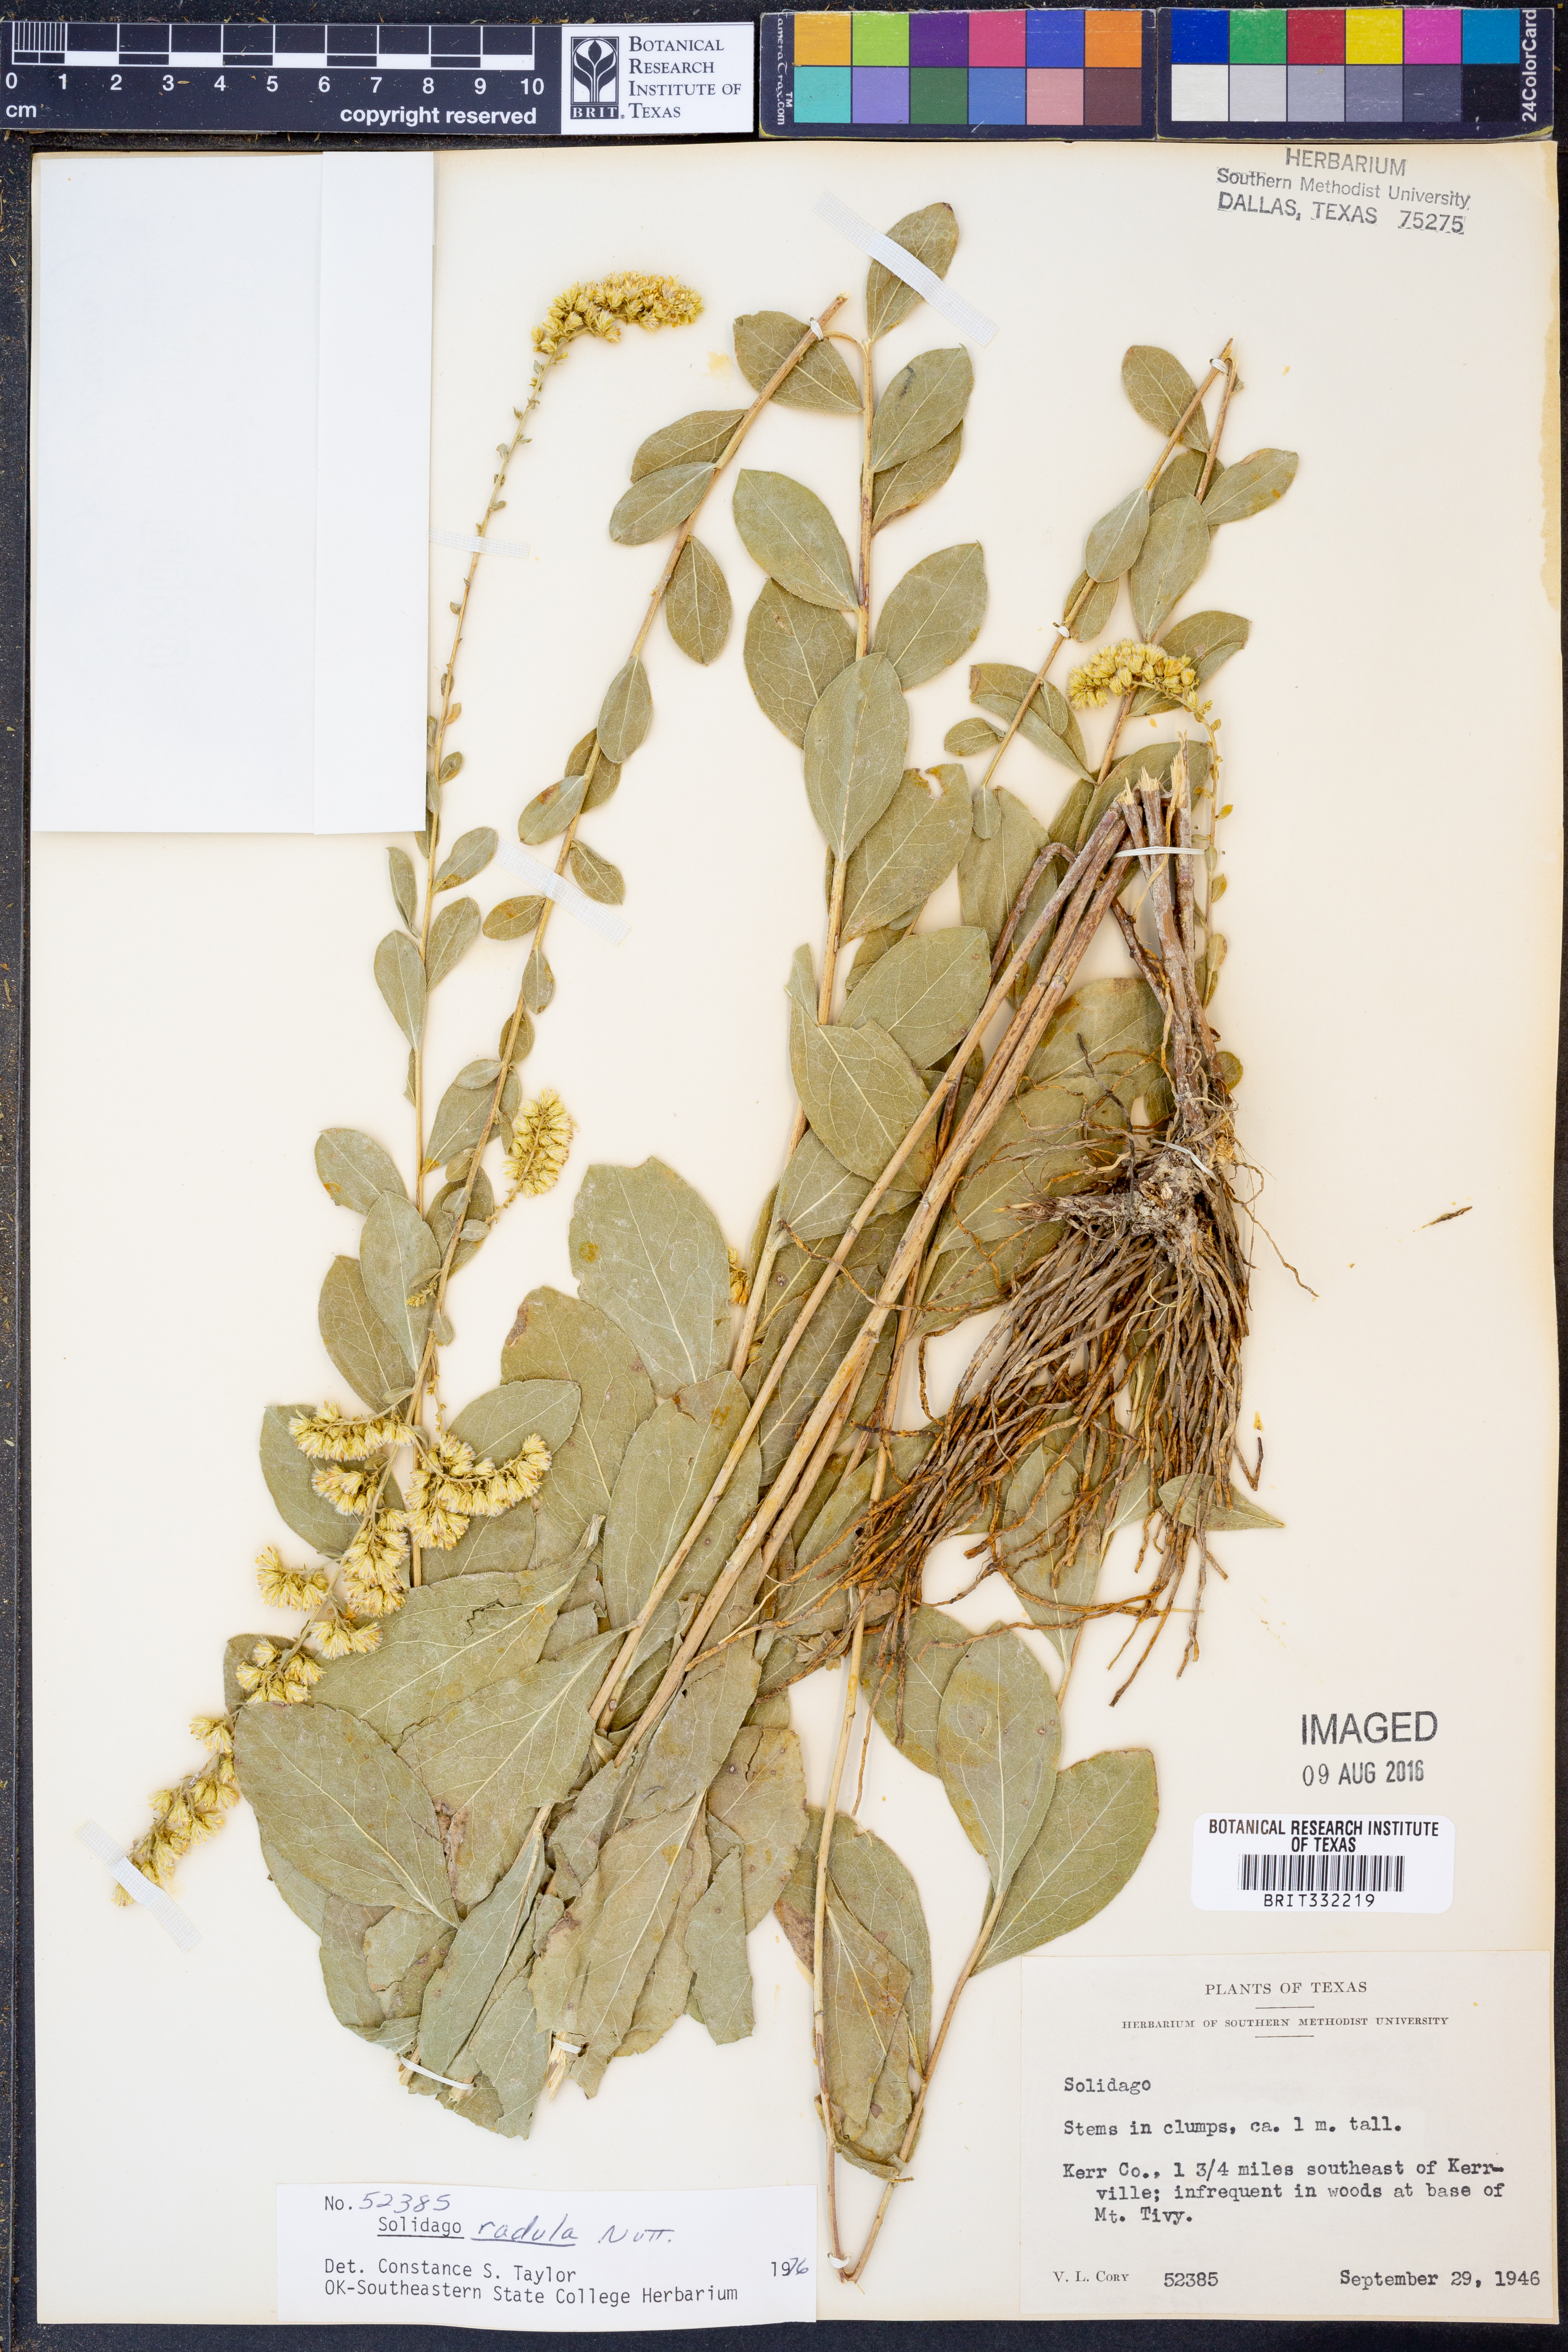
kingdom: Plantae
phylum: Tracheophyta
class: Magnoliopsida
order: Asterales
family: Asteraceae
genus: Solidago
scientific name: Solidago radula
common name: Western rough goldenrod
